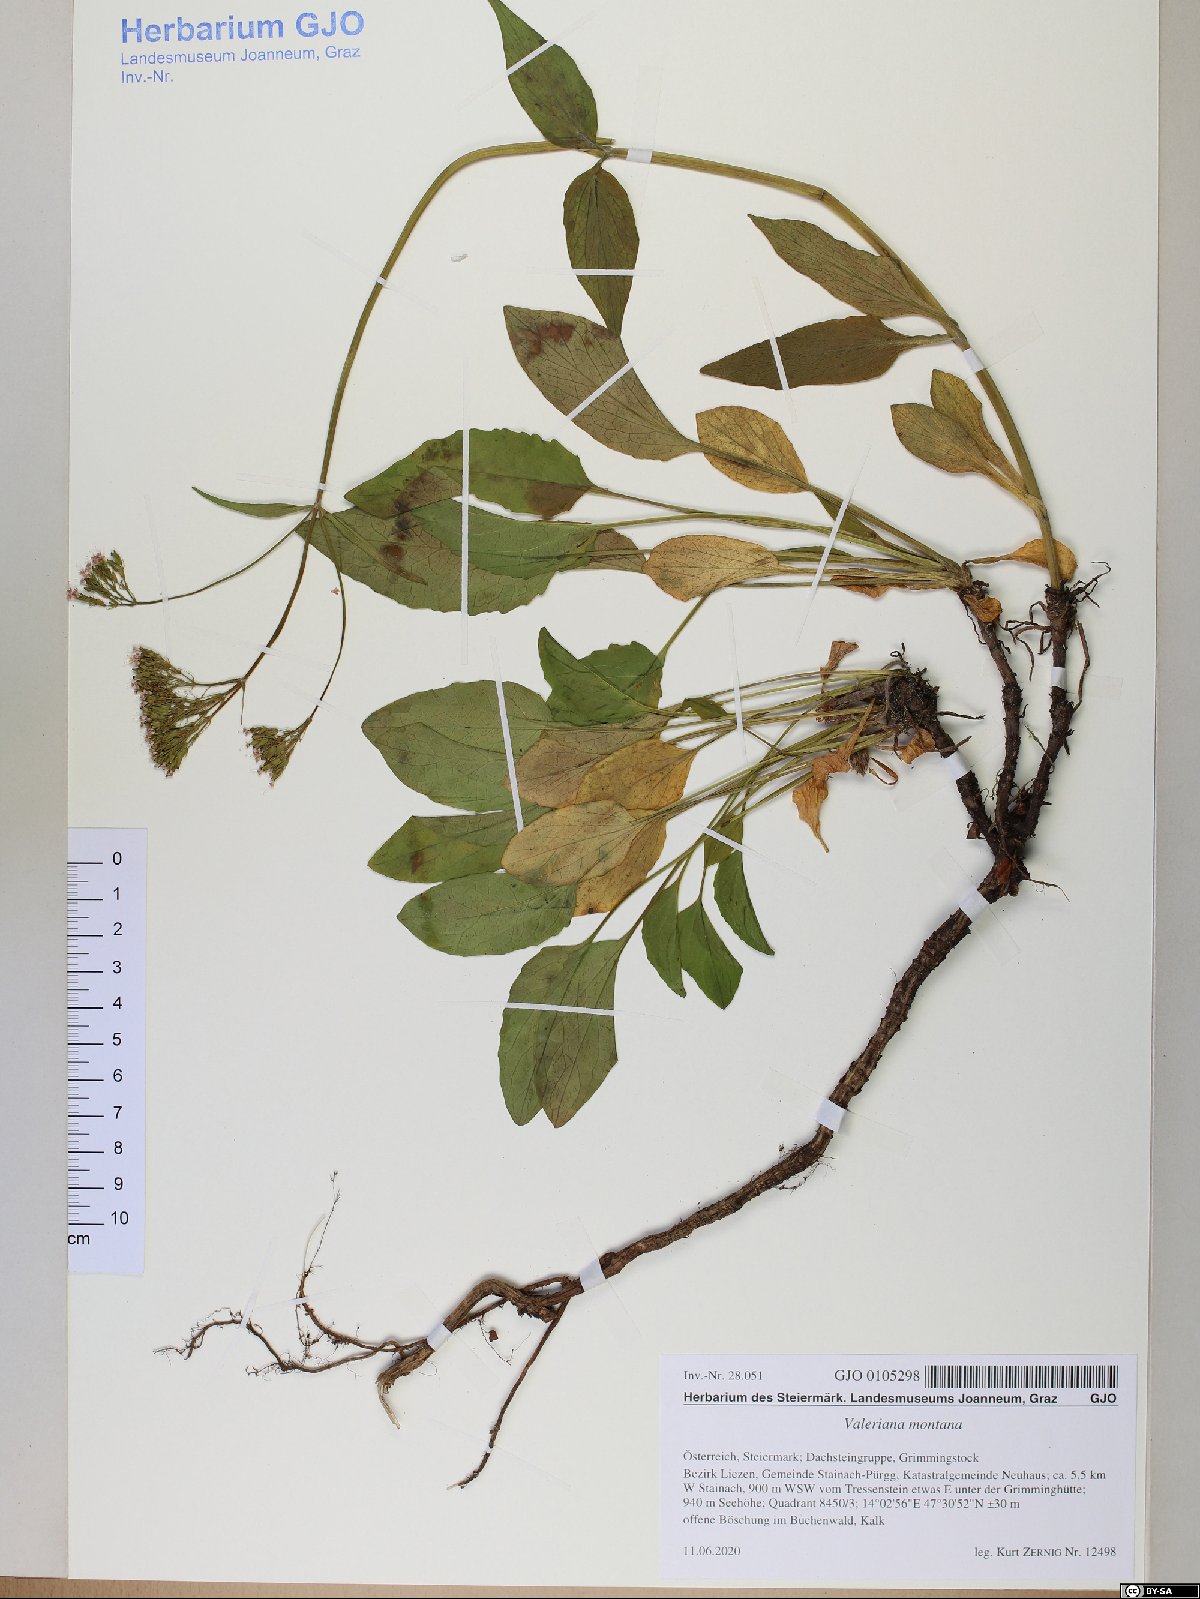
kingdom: Plantae
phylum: Tracheophyta
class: Magnoliopsida
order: Dipsacales
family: Caprifoliaceae
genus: Valeriana
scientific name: Valeriana montana
